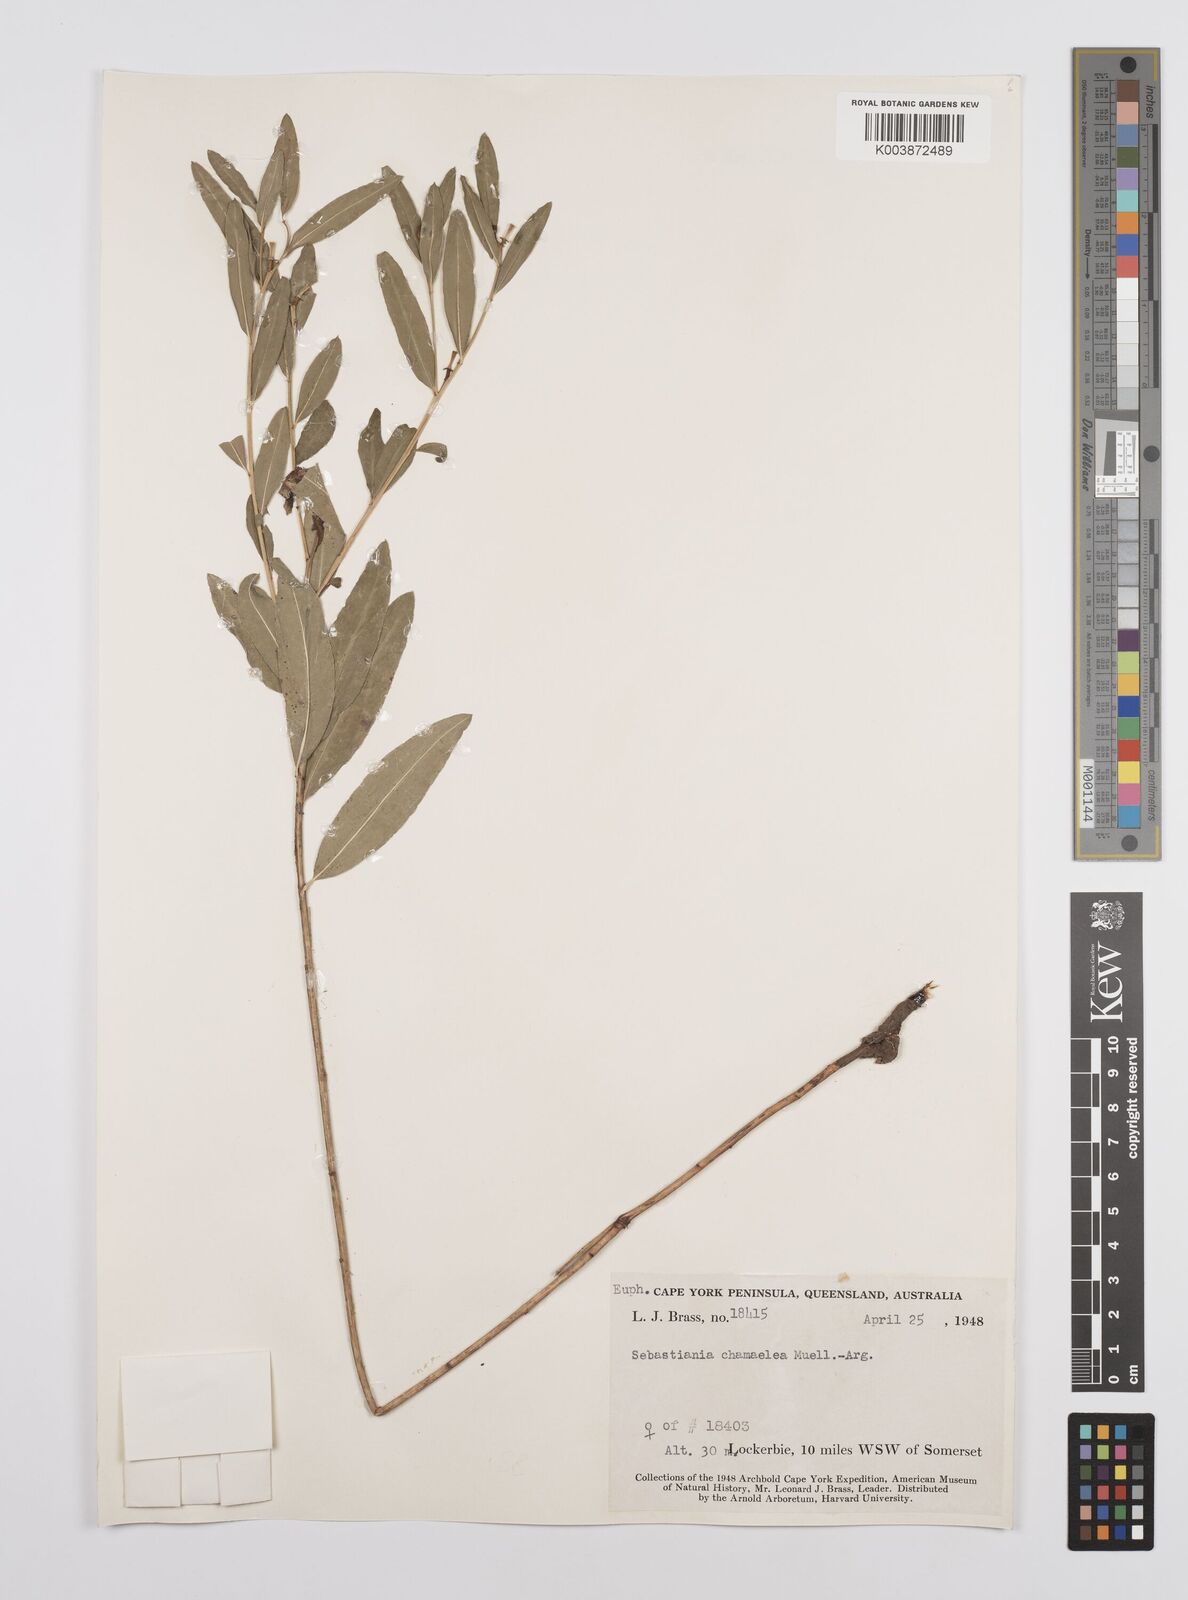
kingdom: Plantae
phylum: Tracheophyta
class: Magnoliopsida
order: Malpighiales
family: Euphorbiaceae
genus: Microstachys
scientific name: Microstachys chamaelea
